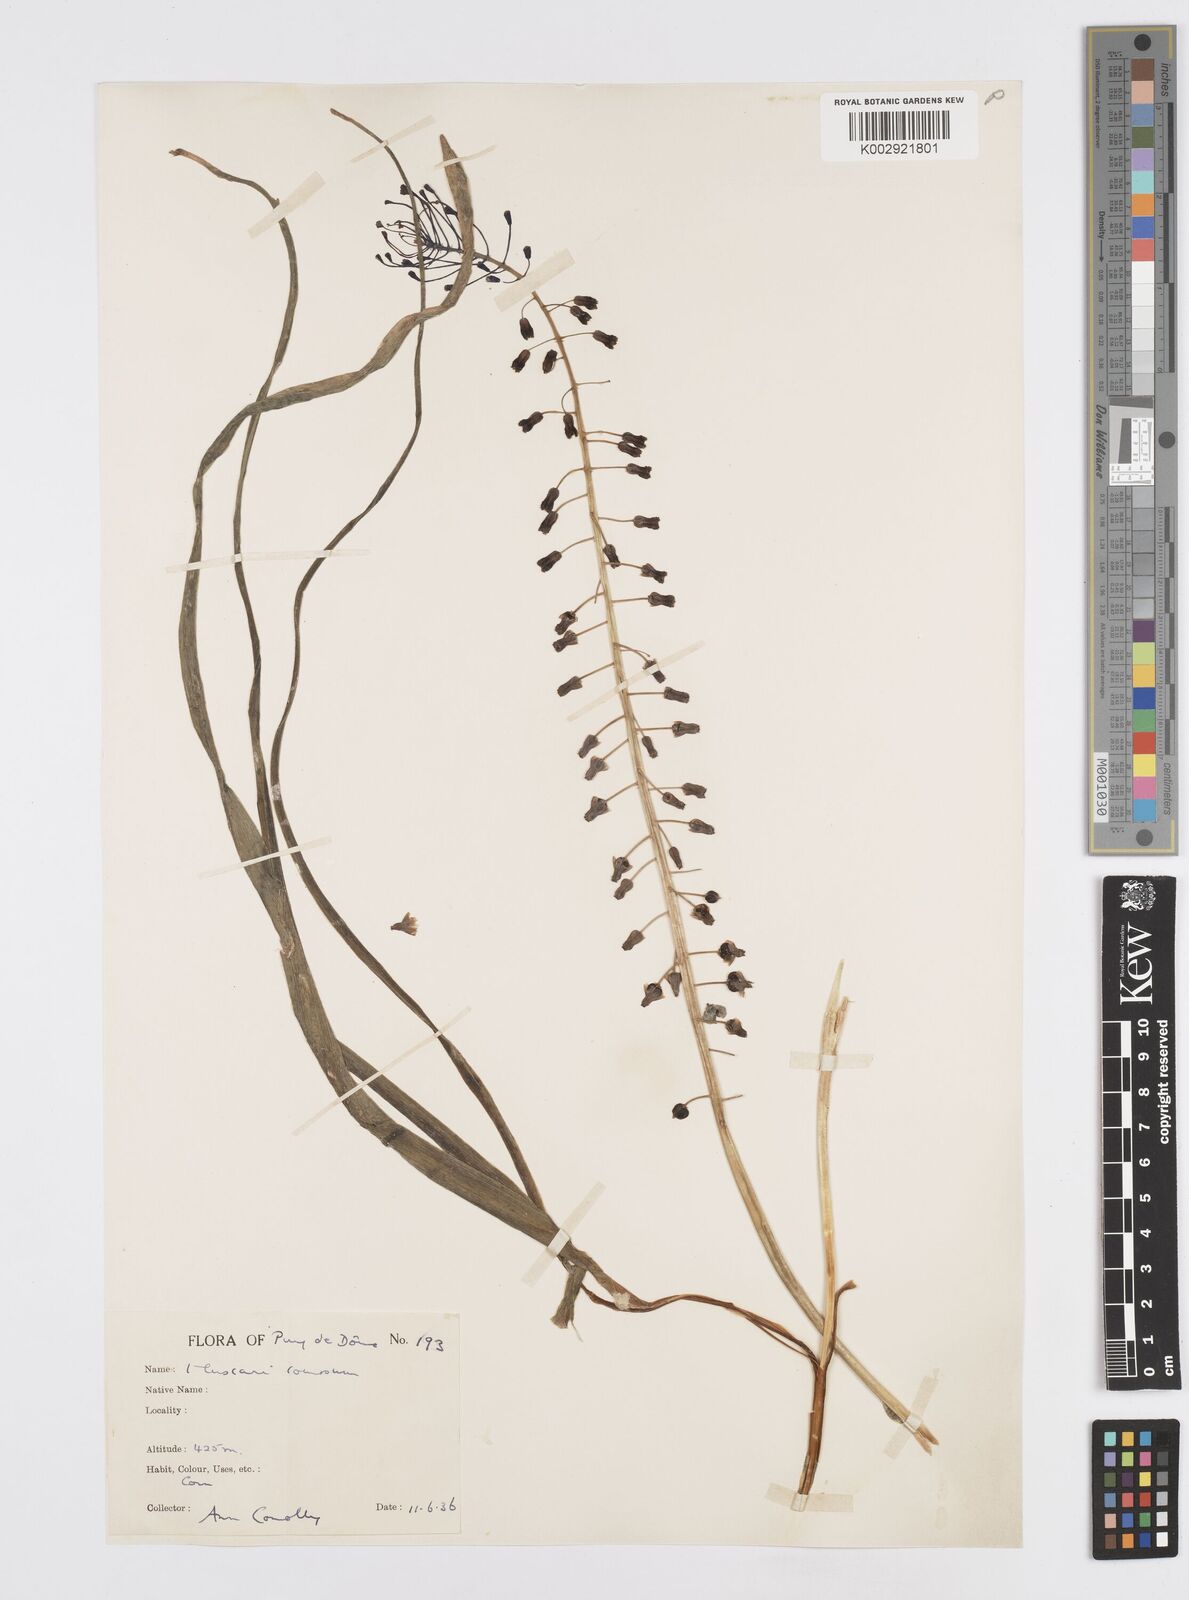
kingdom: Plantae
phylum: Tracheophyta
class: Liliopsida
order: Asparagales
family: Asparagaceae
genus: Muscari
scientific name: Muscari comosum
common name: Tassel hyacinth
